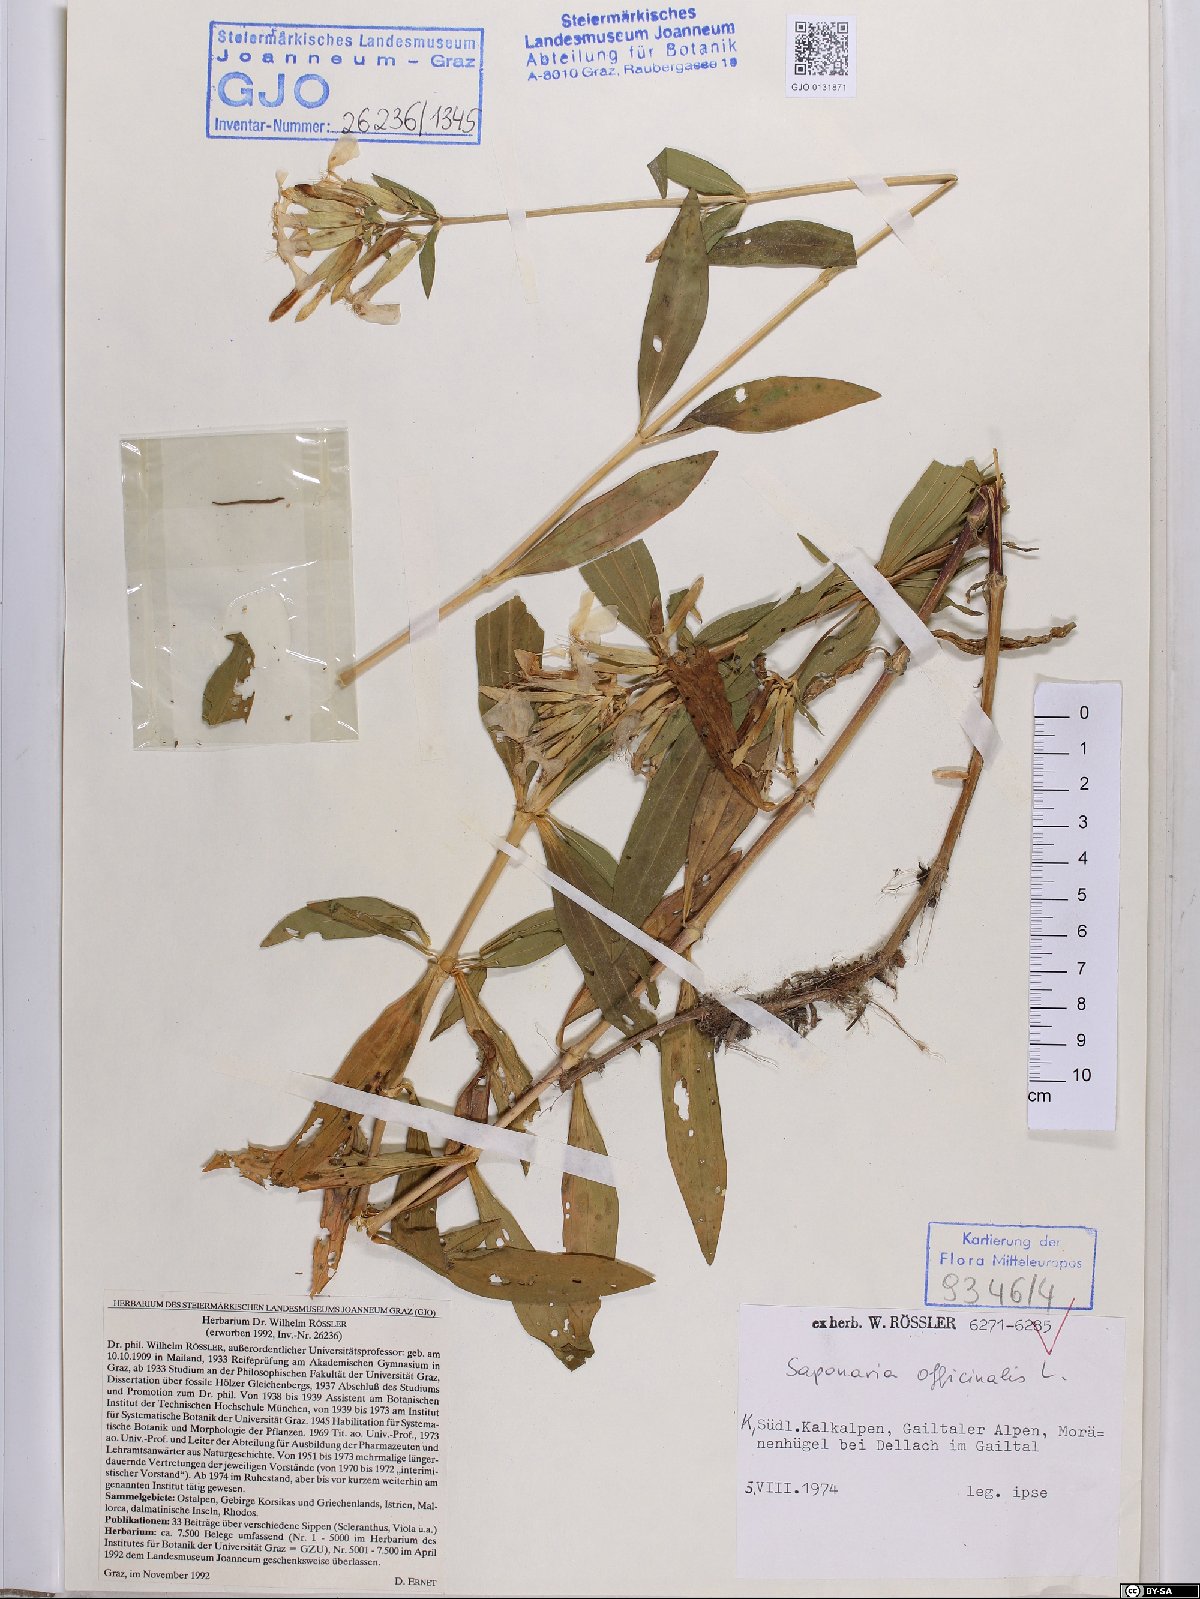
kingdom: Plantae
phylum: Tracheophyta
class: Magnoliopsida
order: Caryophyllales
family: Caryophyllaceae
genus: Saponaria
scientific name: Saponaria officinalis
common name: Soapwort
